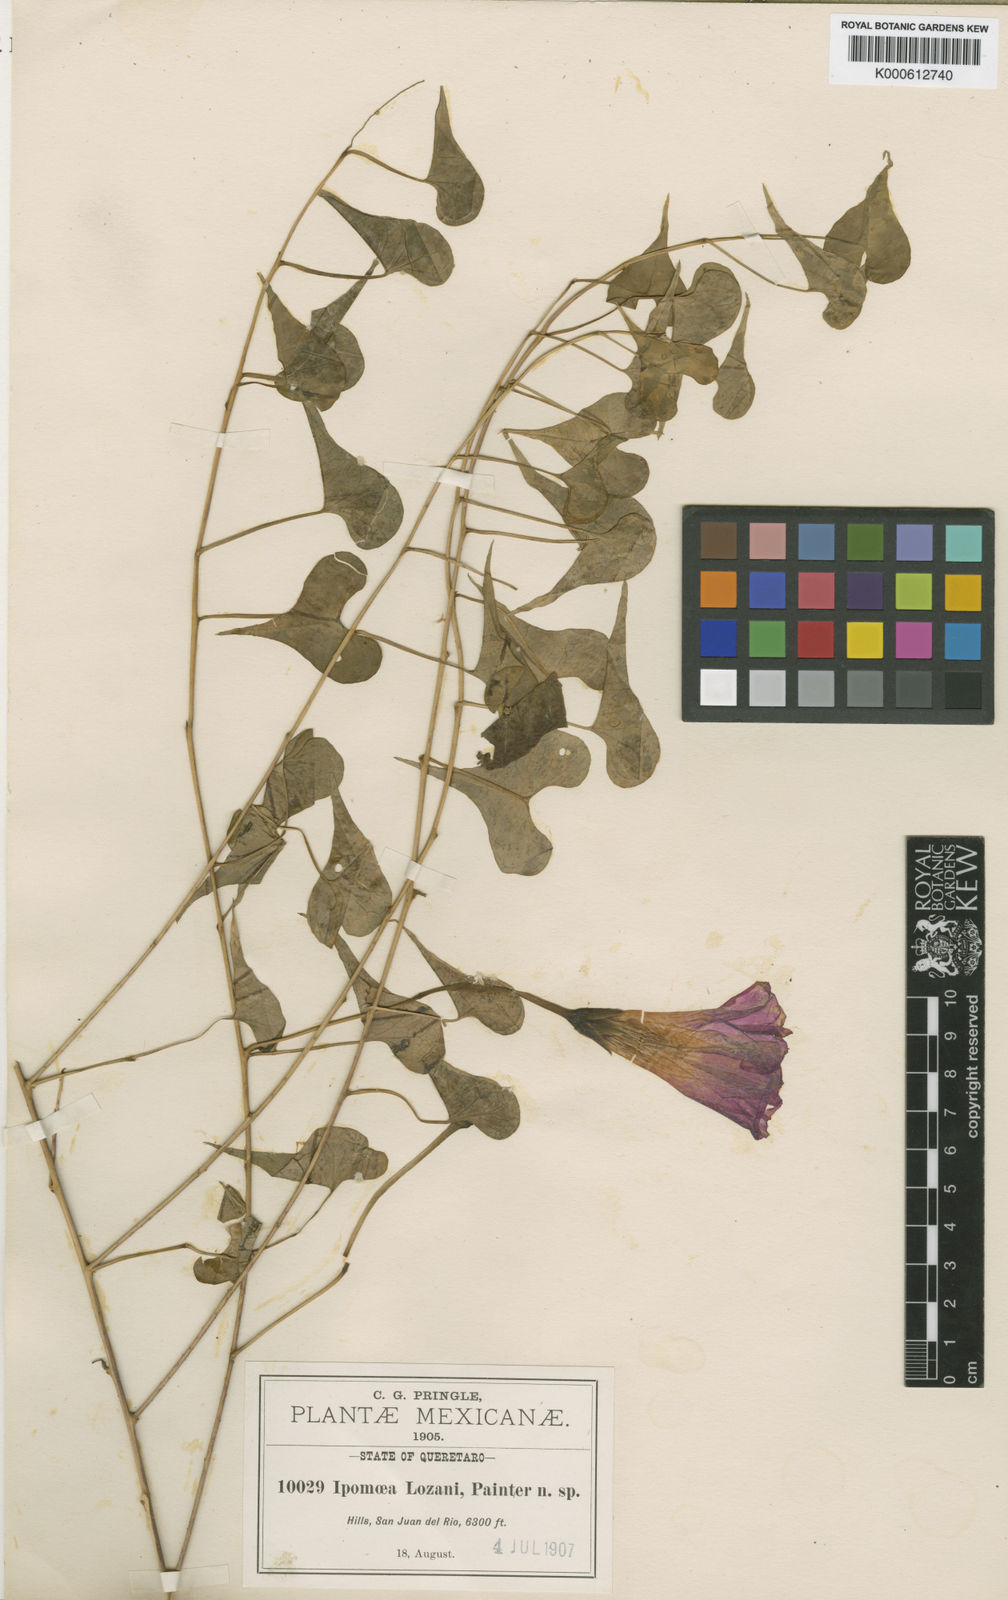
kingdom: Plantae
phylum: Tracheophyta
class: Magnoliopsida
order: Solanales
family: Convolvulaceae
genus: Ipomoea
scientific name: Ipomoea
